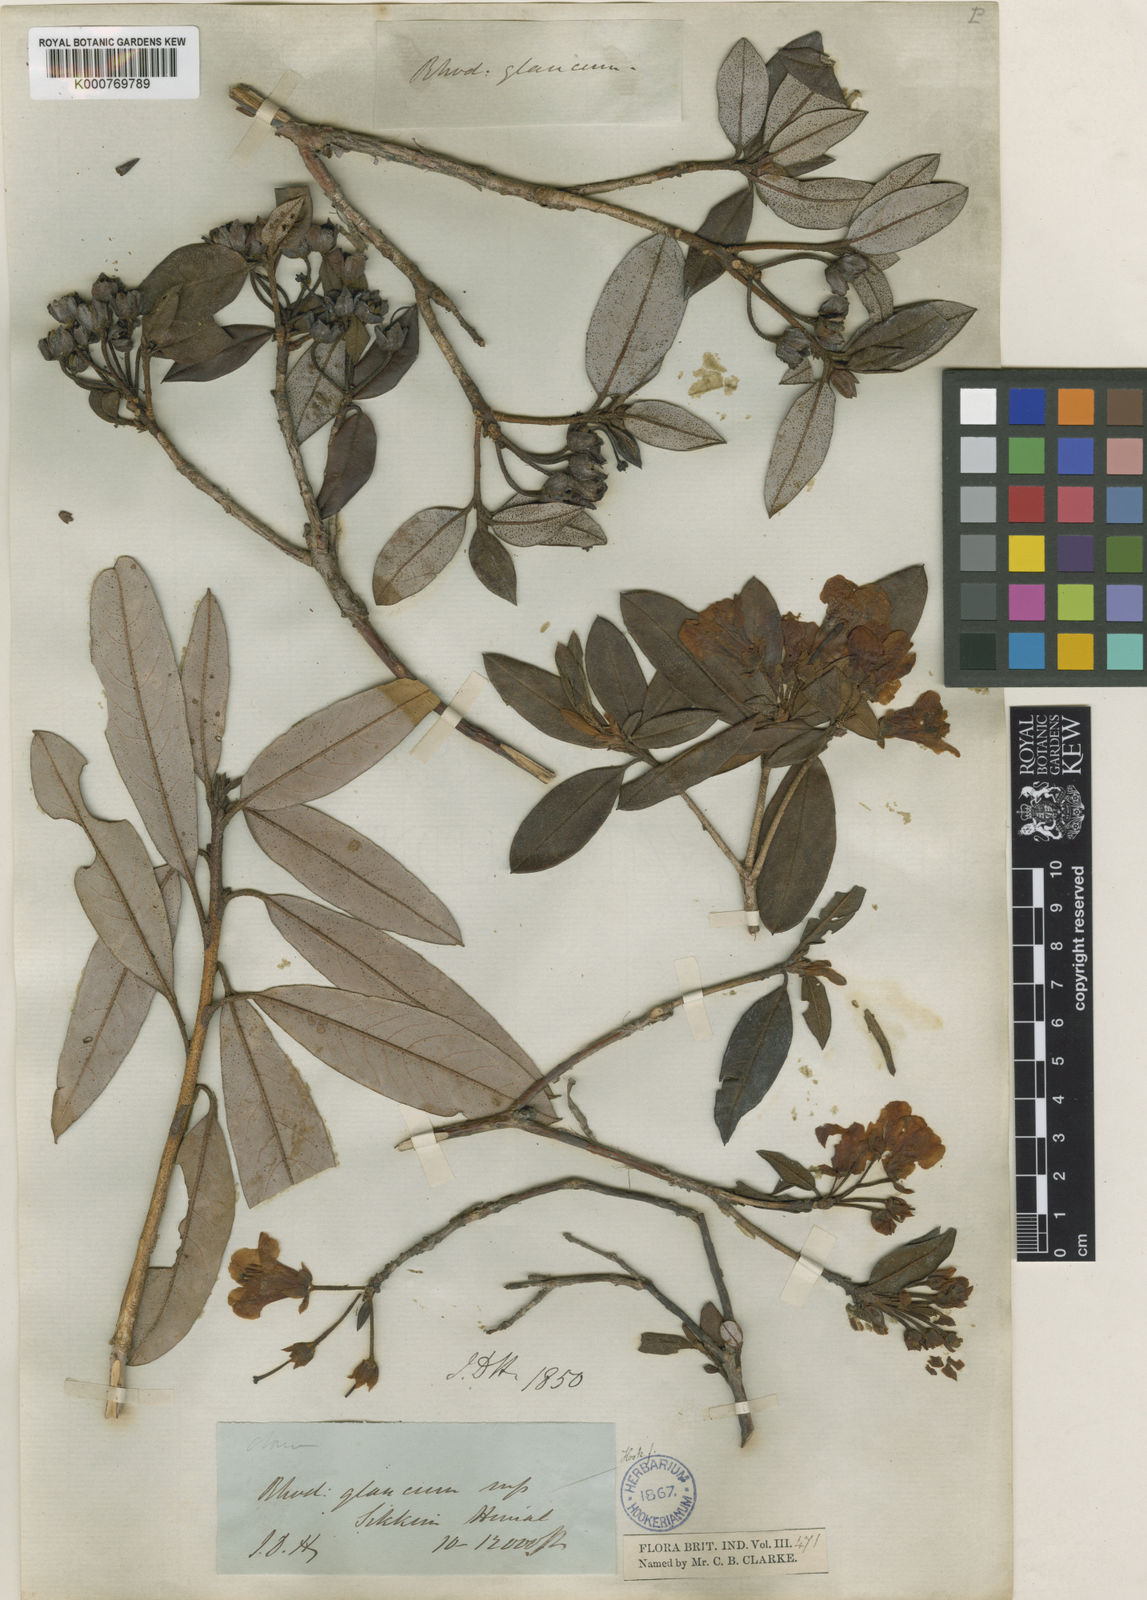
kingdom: Plantae
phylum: Tracheophyta
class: Magnoliopsida
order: Ericales
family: Ericaceae
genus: Rhododendron
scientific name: Rhododendron glaucophyllum
